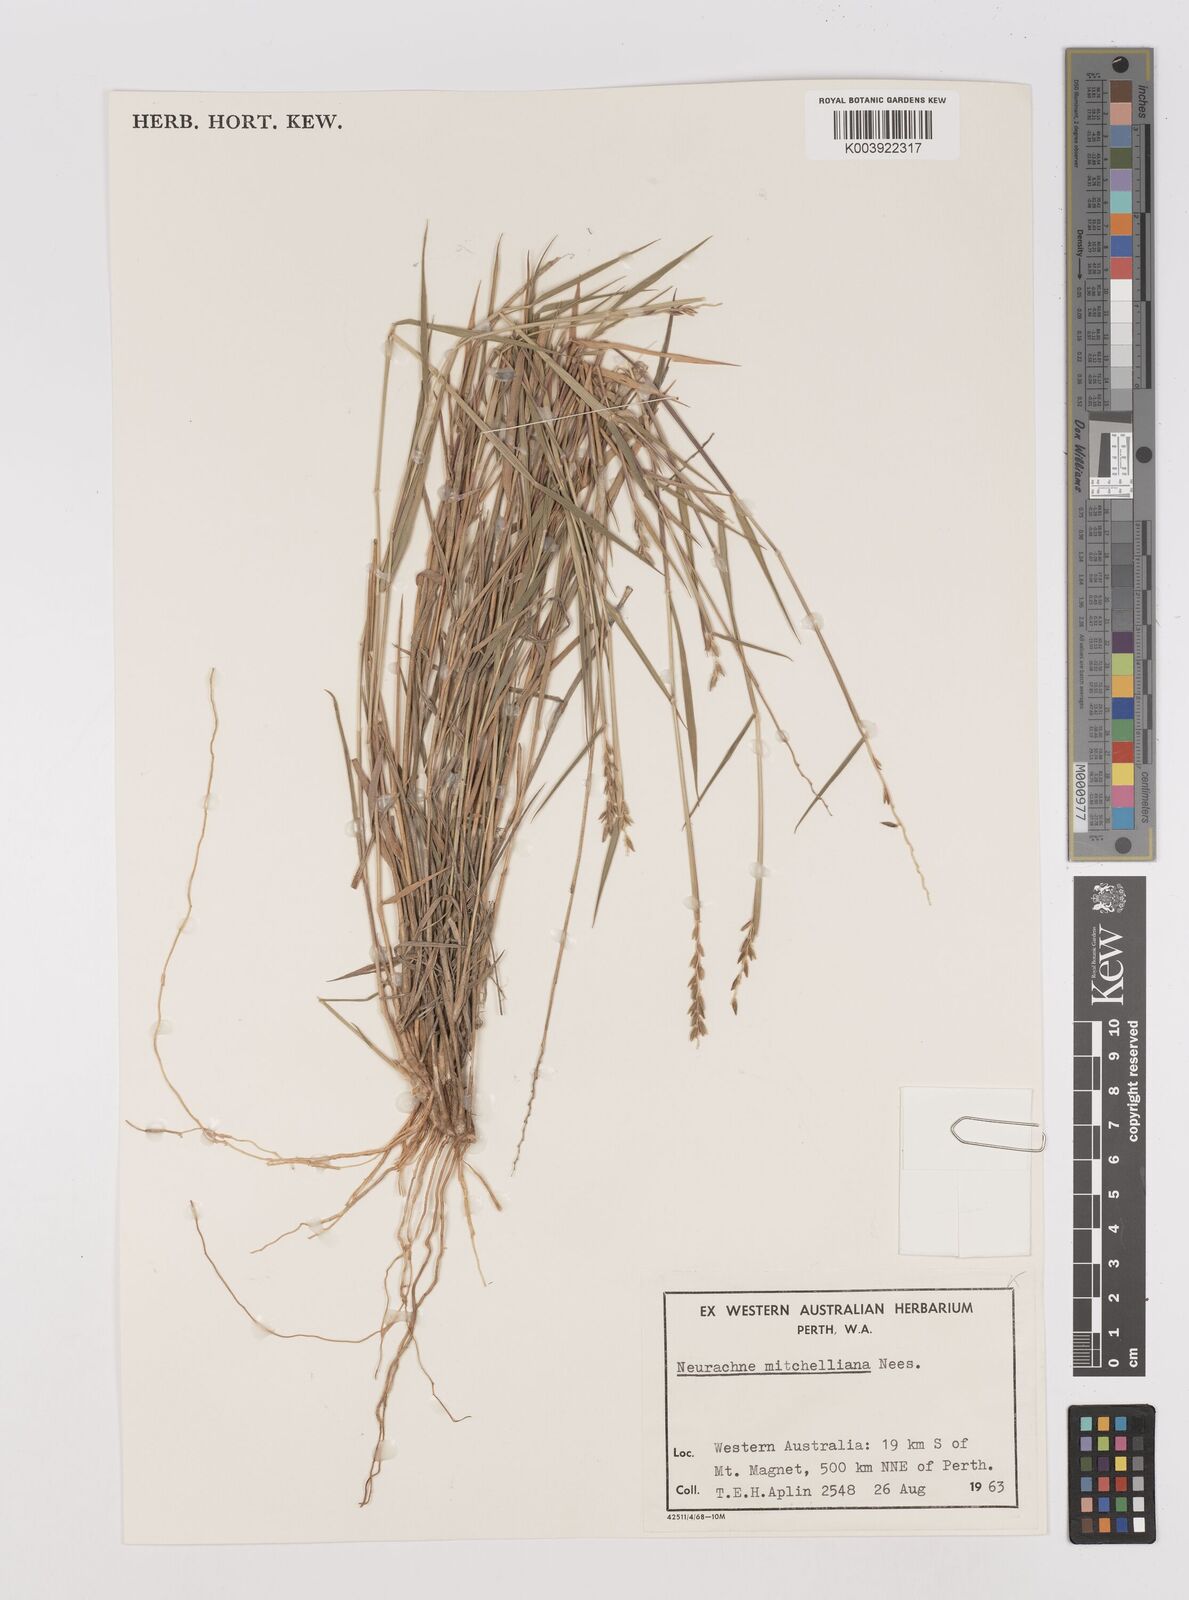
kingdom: Plantae
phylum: Tracheophyta
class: Liliopsida
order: Poales
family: Poaceae
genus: Thyridolepis
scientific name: Thyridolepis mitchelliana
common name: Rock tassel grass
